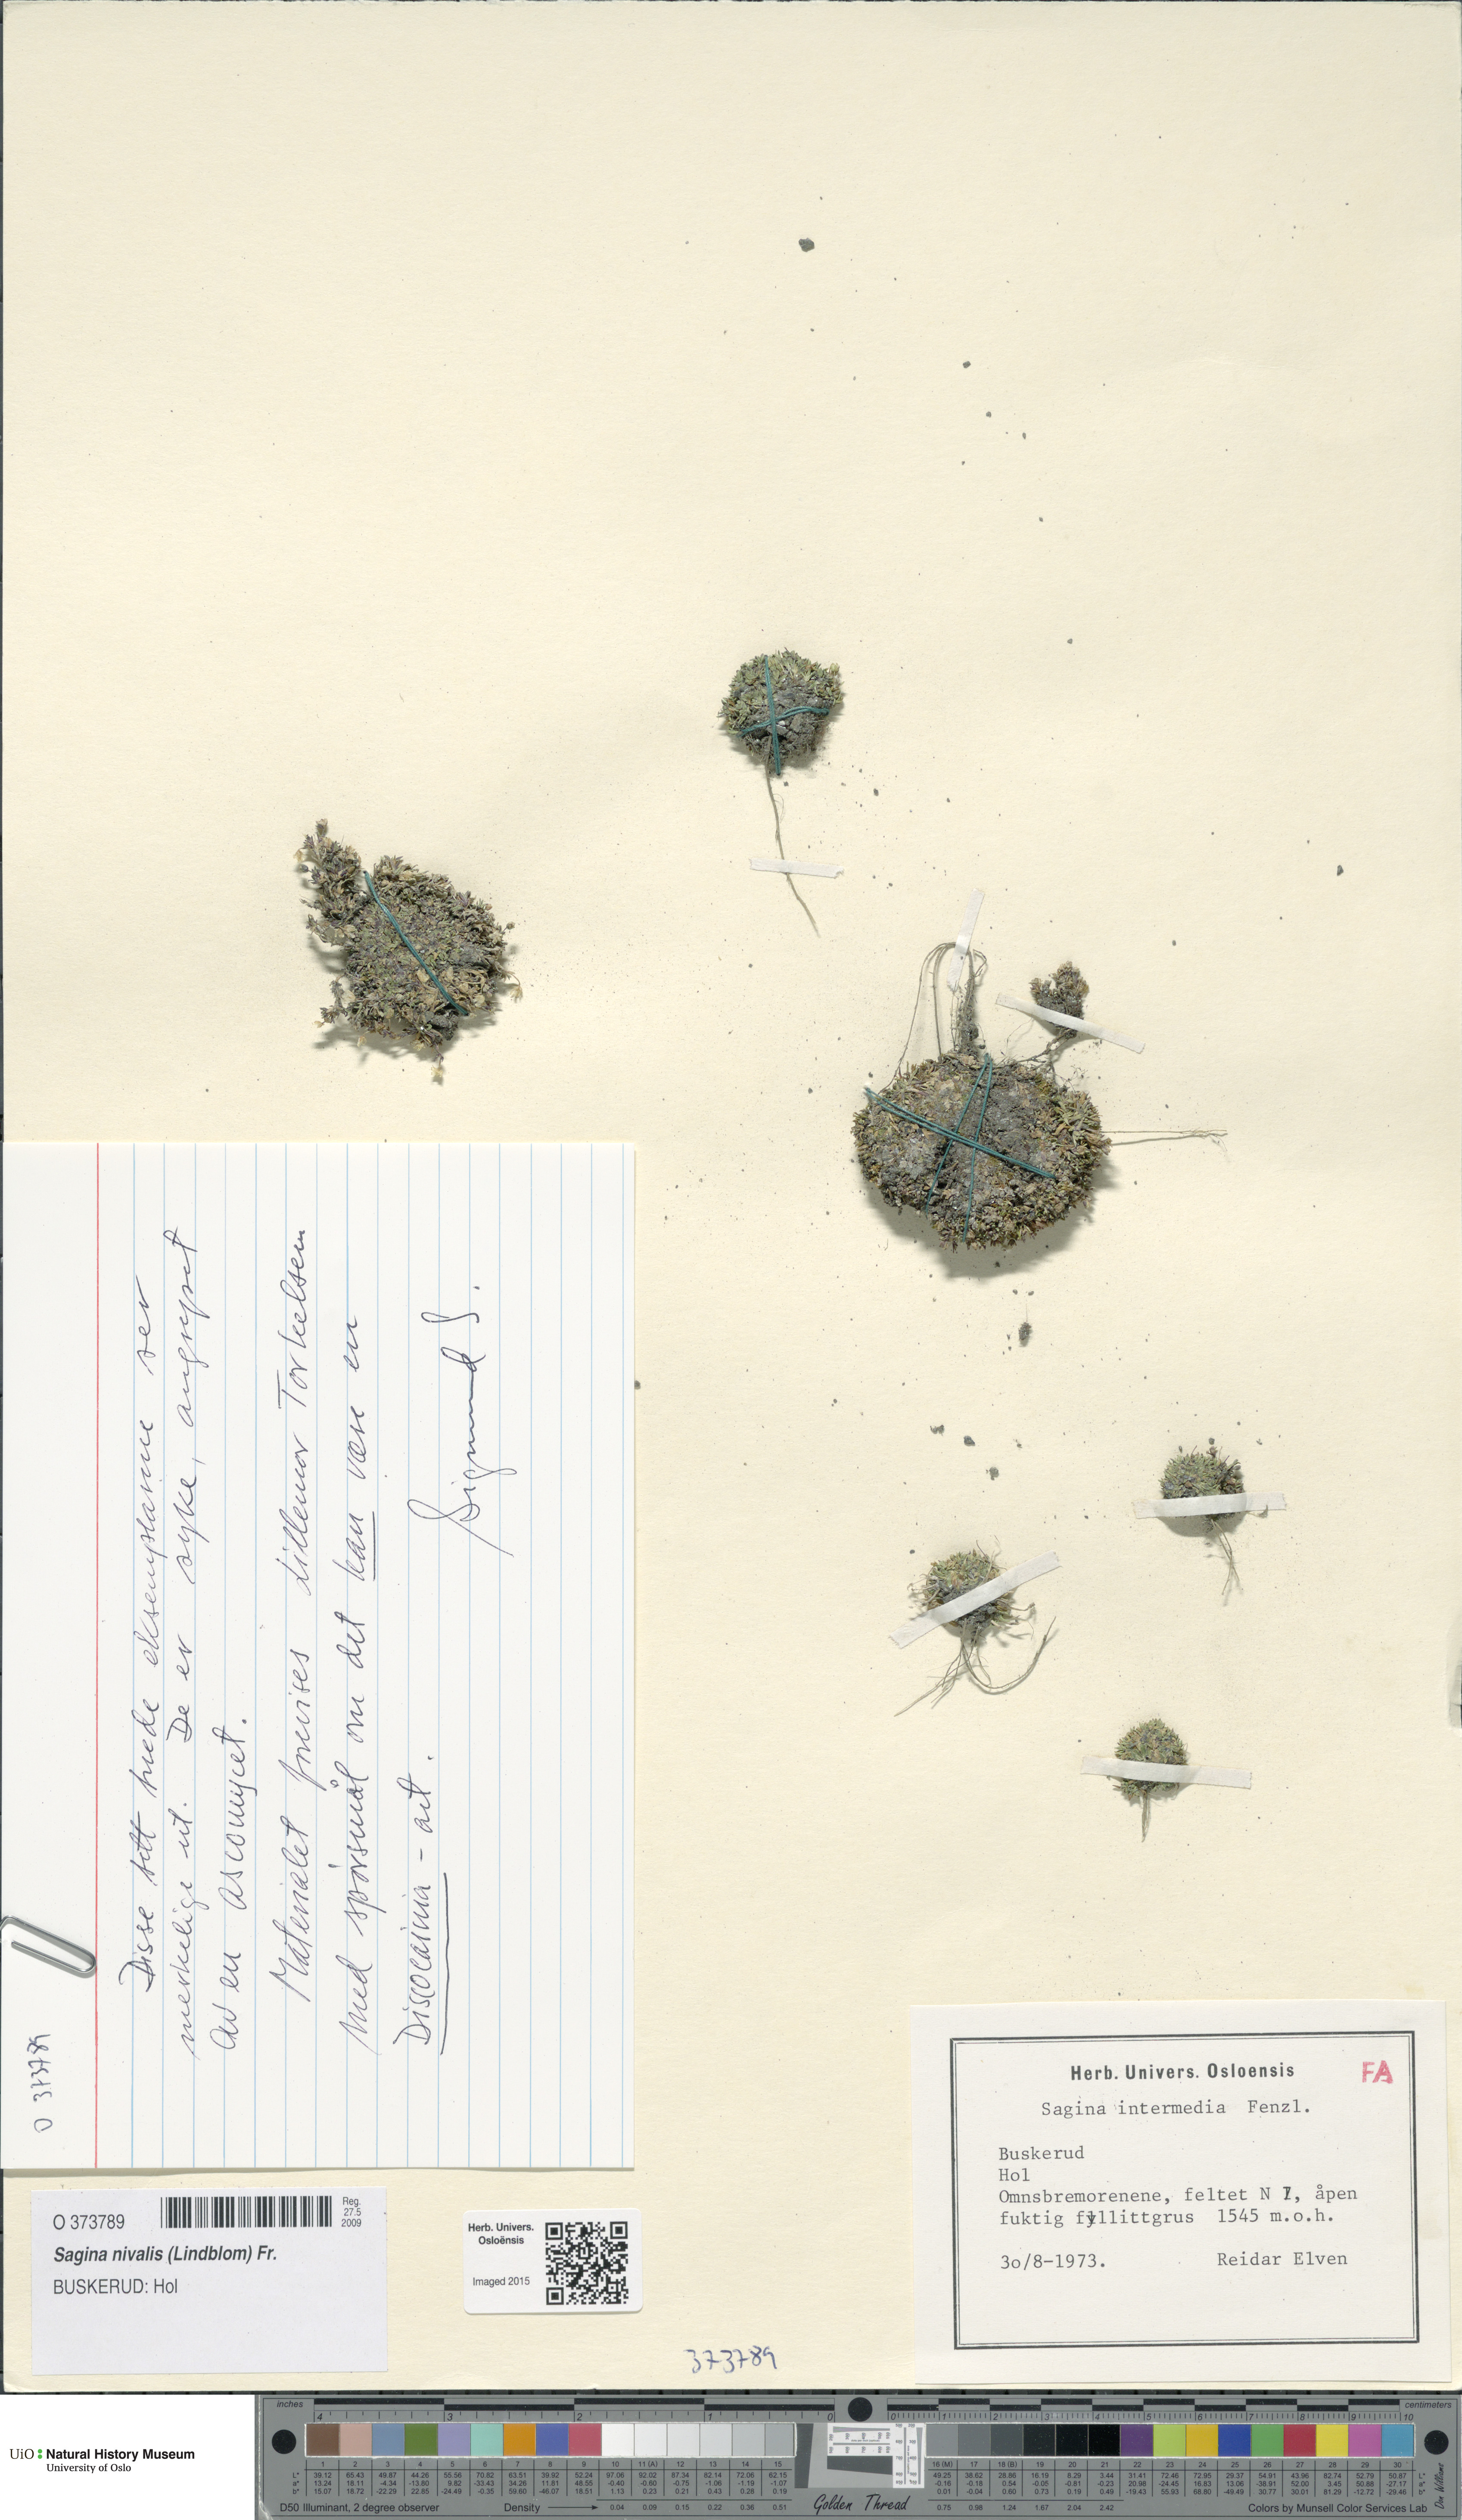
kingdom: Plantae
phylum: Tracheophyta
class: Magnoliopsida
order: Caryophyllales
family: Caryophyllaceae
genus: Sagina
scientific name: Sagina nivalis
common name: Snow pearlwort
